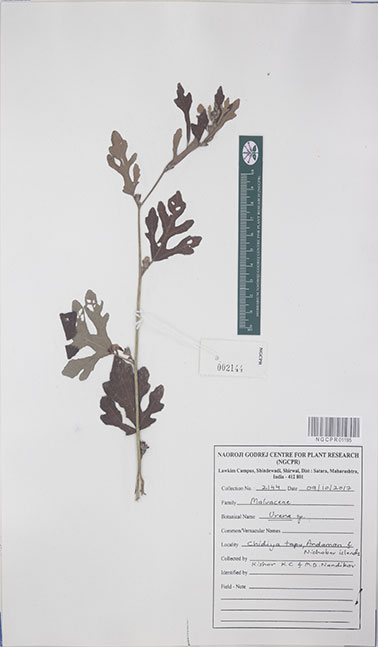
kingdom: Plantae
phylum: Tracheophyta
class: Magnoliopsida
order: Malvales
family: Malvaceae
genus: Urena
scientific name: Urena
